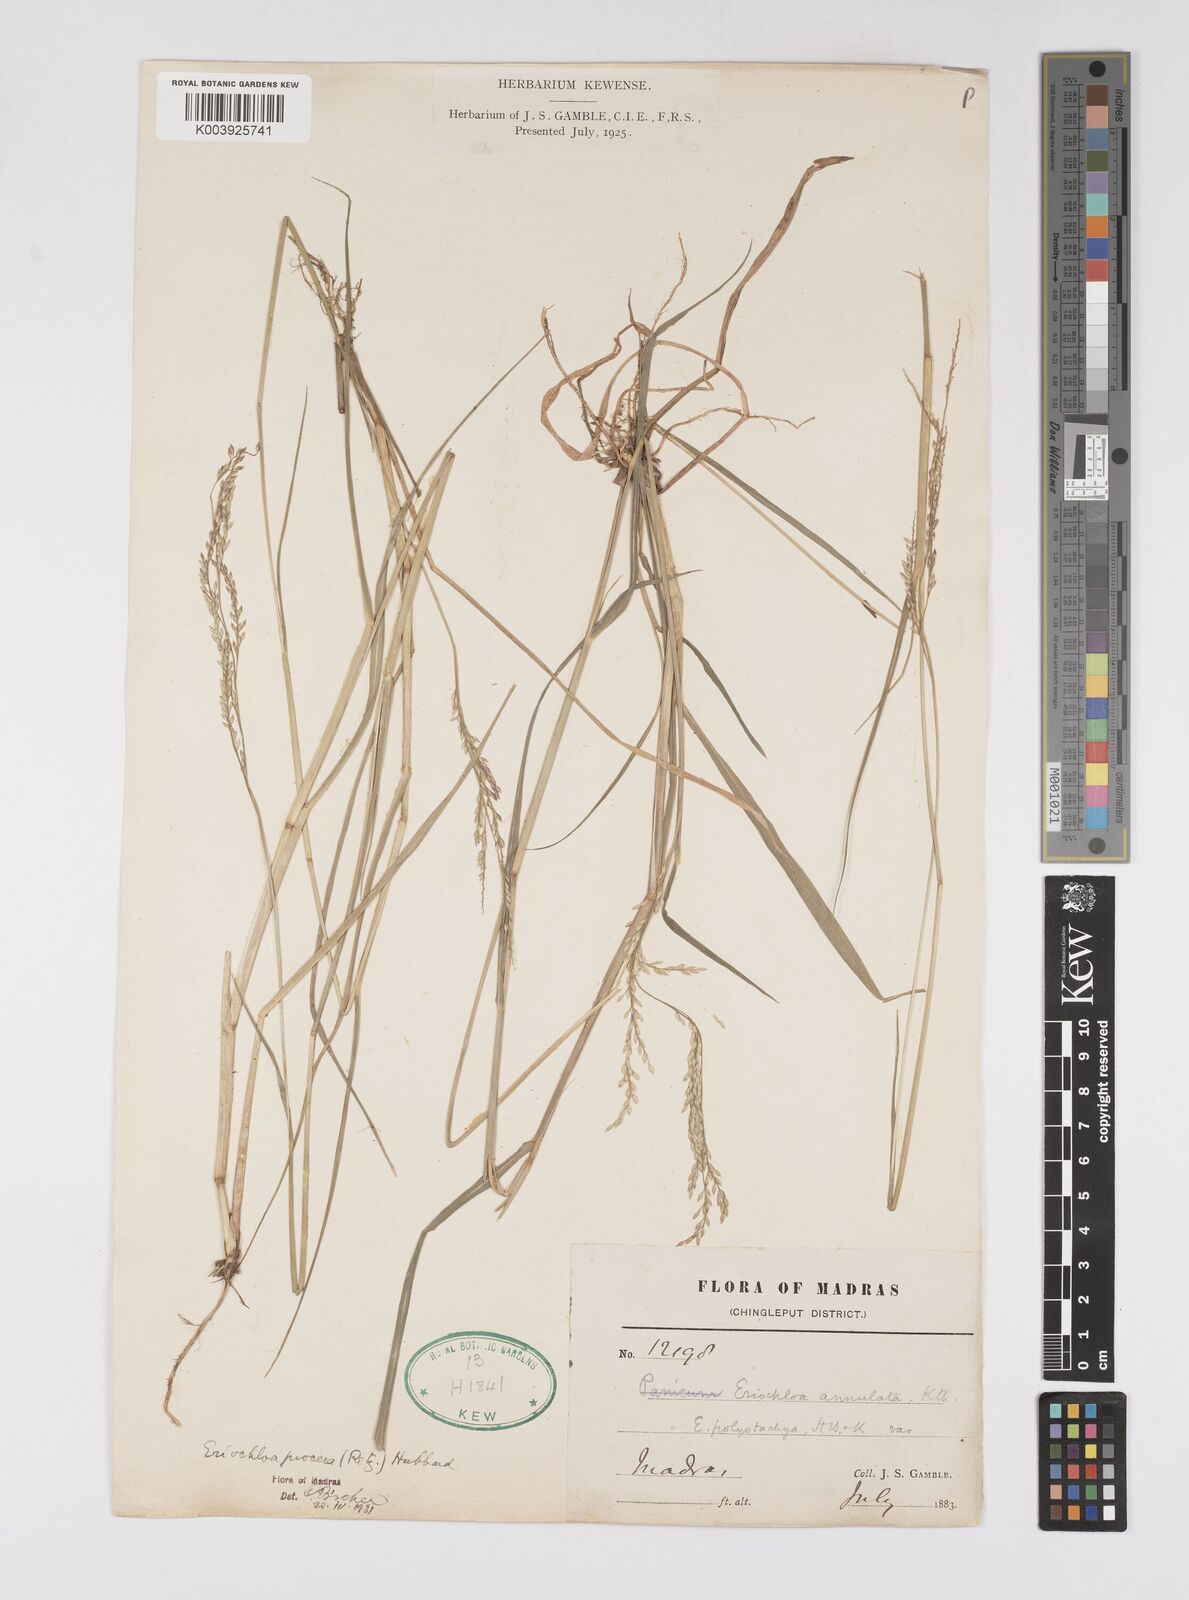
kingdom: Plantae
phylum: Tracheophyta
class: Liliopsida
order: Poales
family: Poaceae
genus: Eriochloa
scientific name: Eriochloa procera
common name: Spring grass
